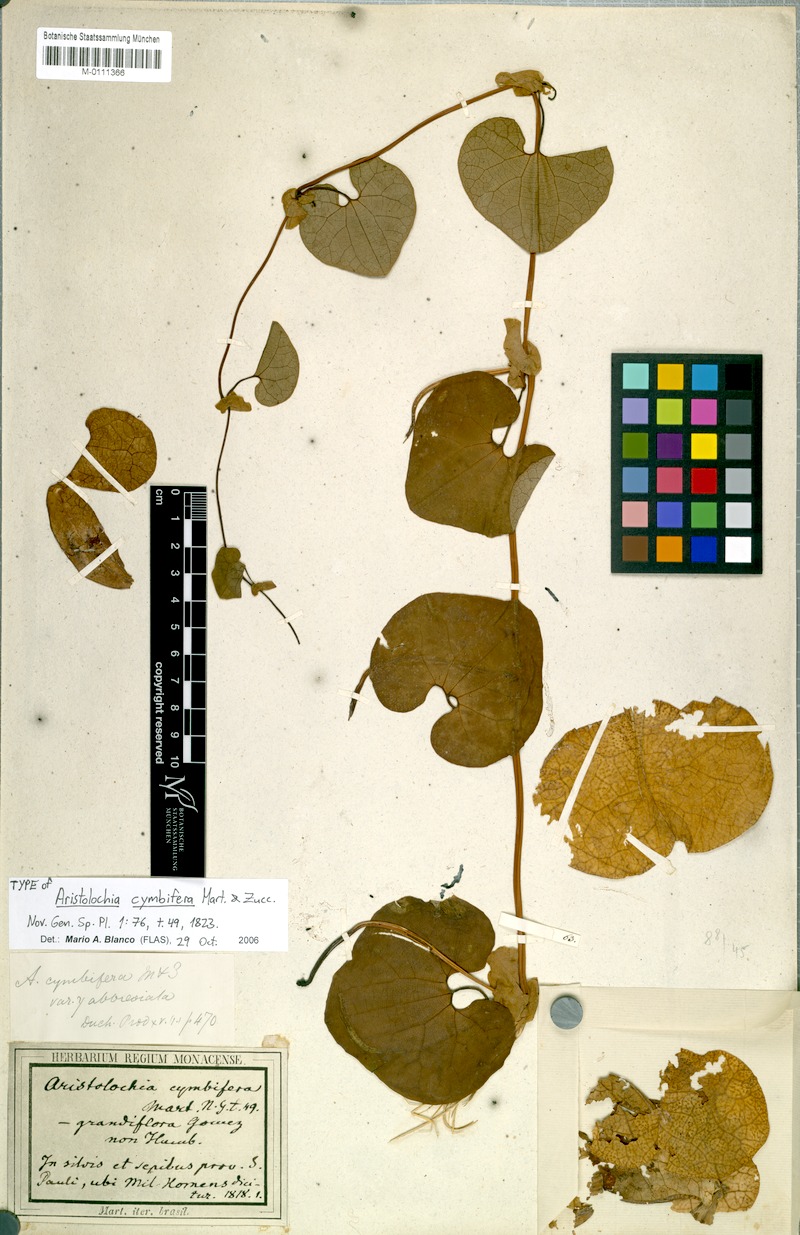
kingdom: Plantae
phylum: Tracheophyta
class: Magnoliopsida
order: Piperales
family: Aristolochiaceae
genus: Aristolochia
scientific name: Aristolochia cymbifera
